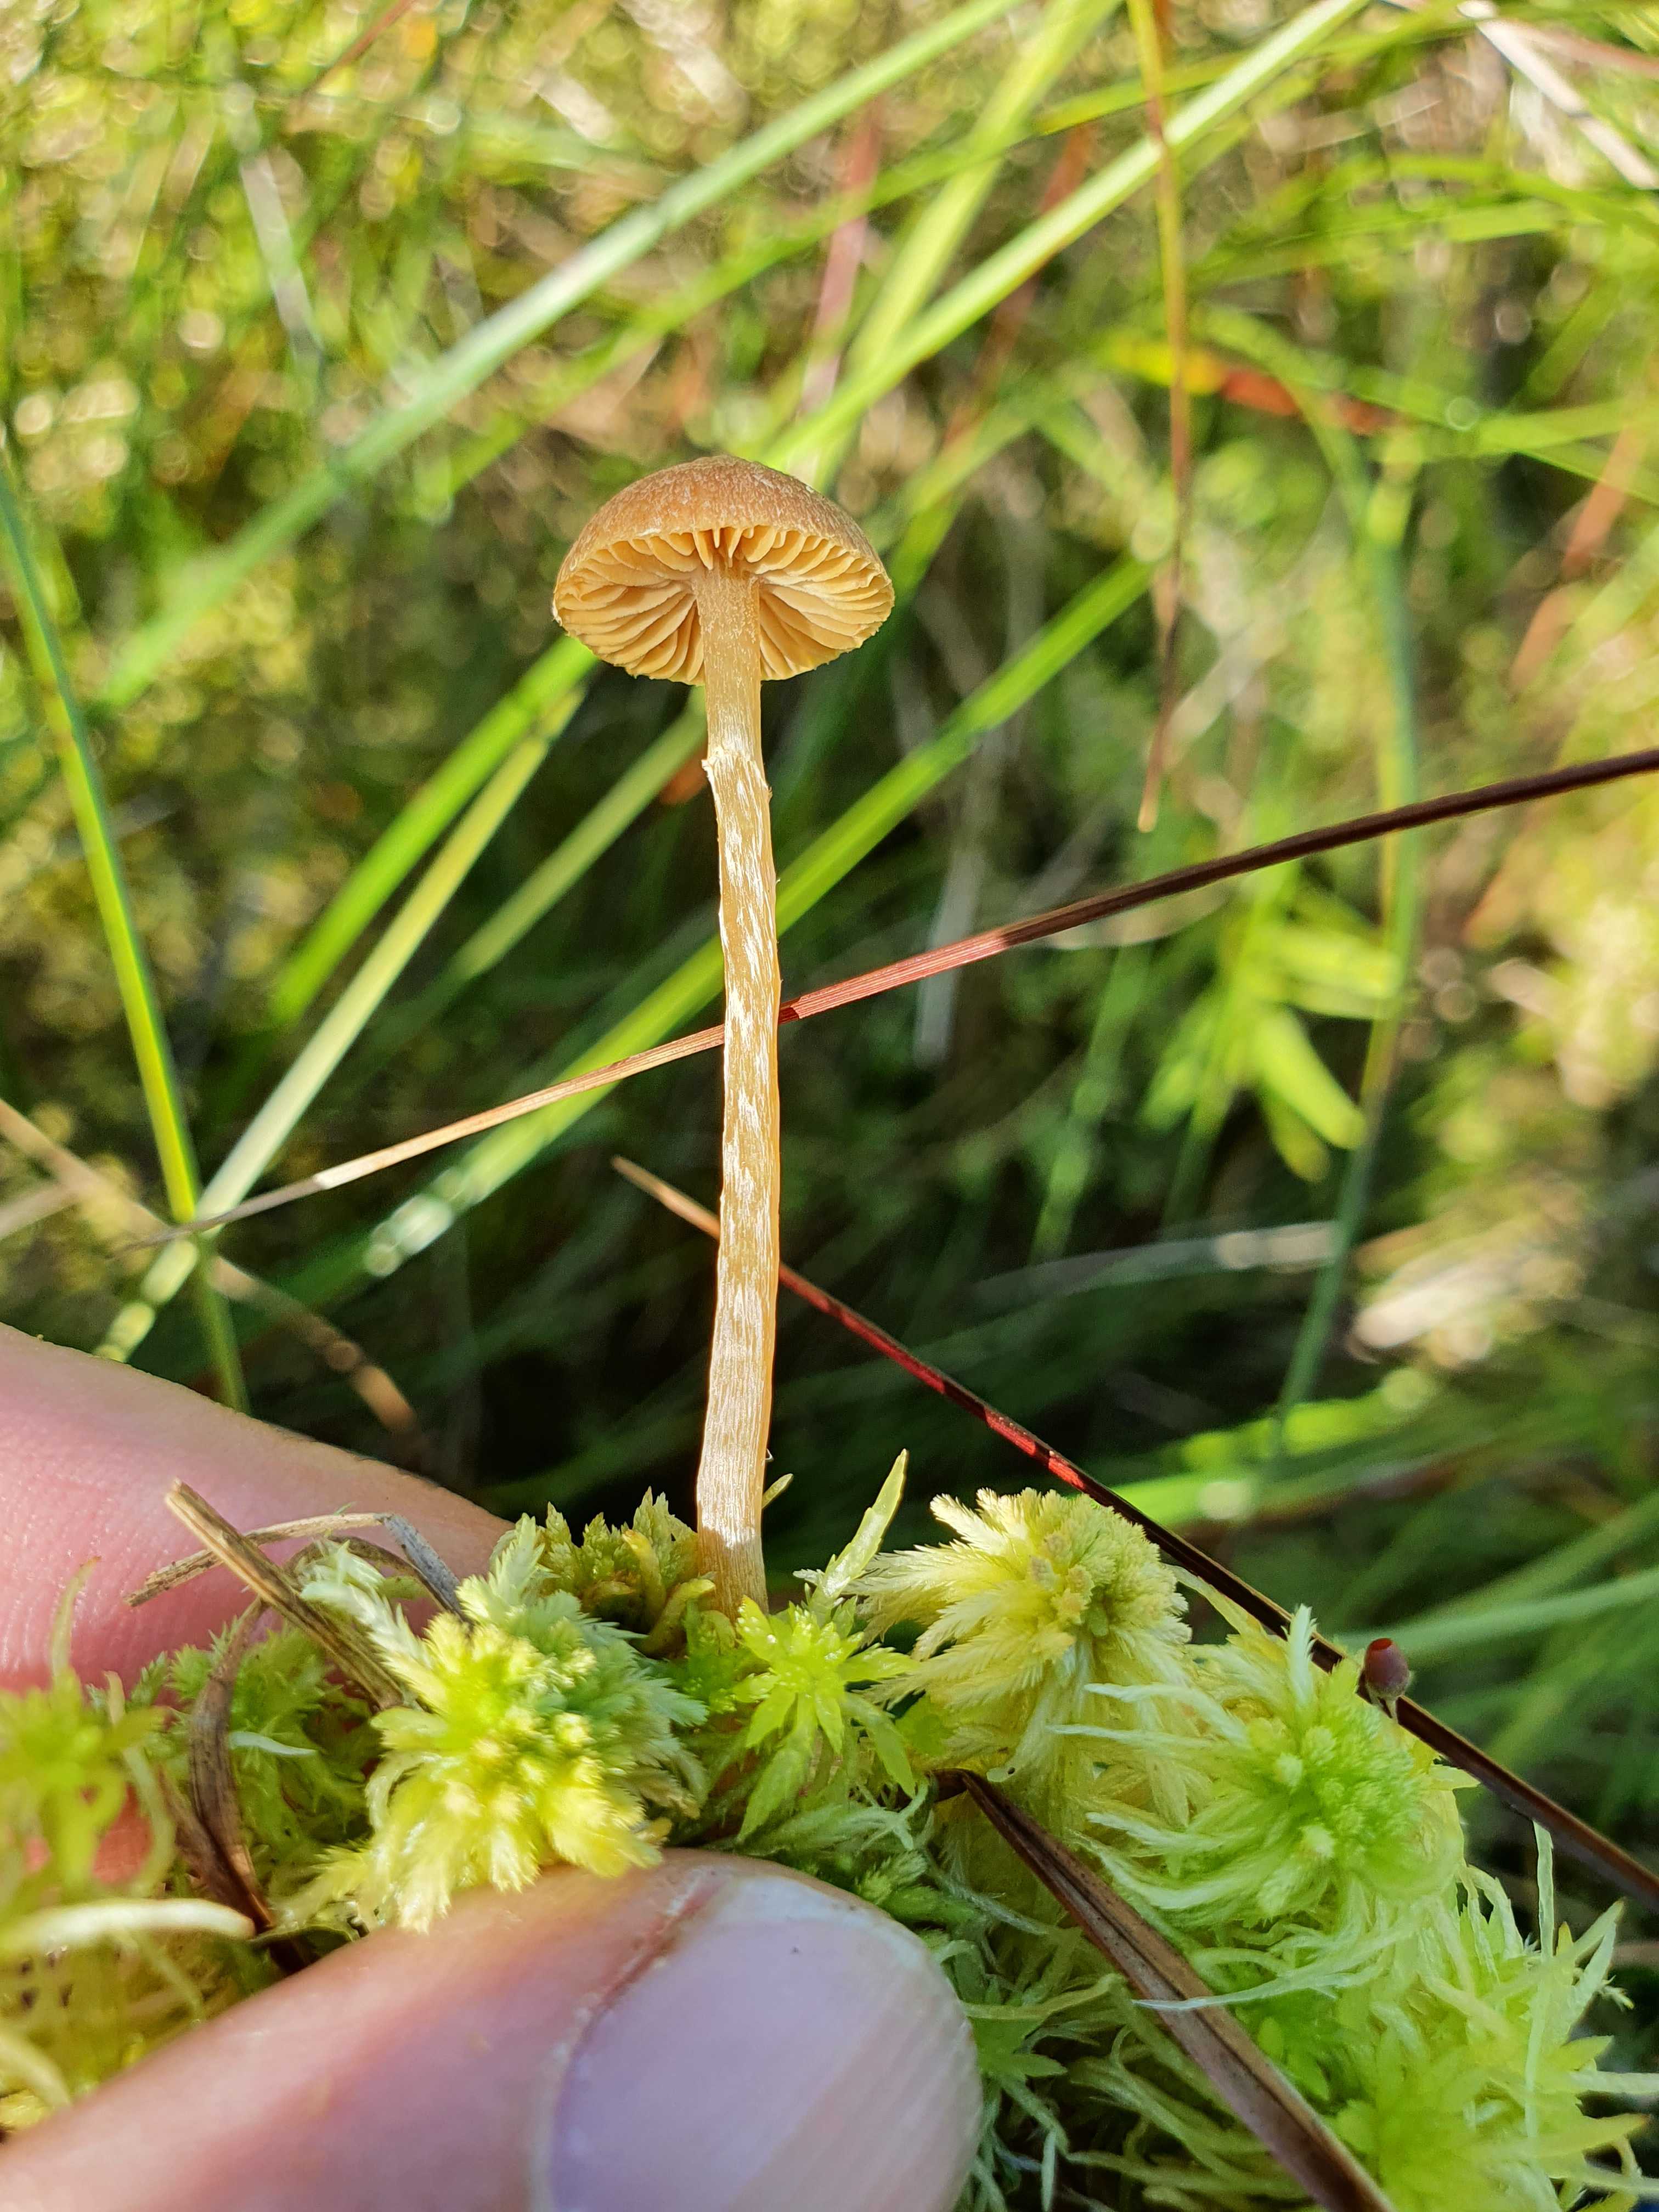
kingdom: Fungi
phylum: Basidiomycota
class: Agaricomycetes
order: Agaricales
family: Hymenogastraceae
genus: Galerina
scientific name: Galerina paludosa
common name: mose-hjelmhat
